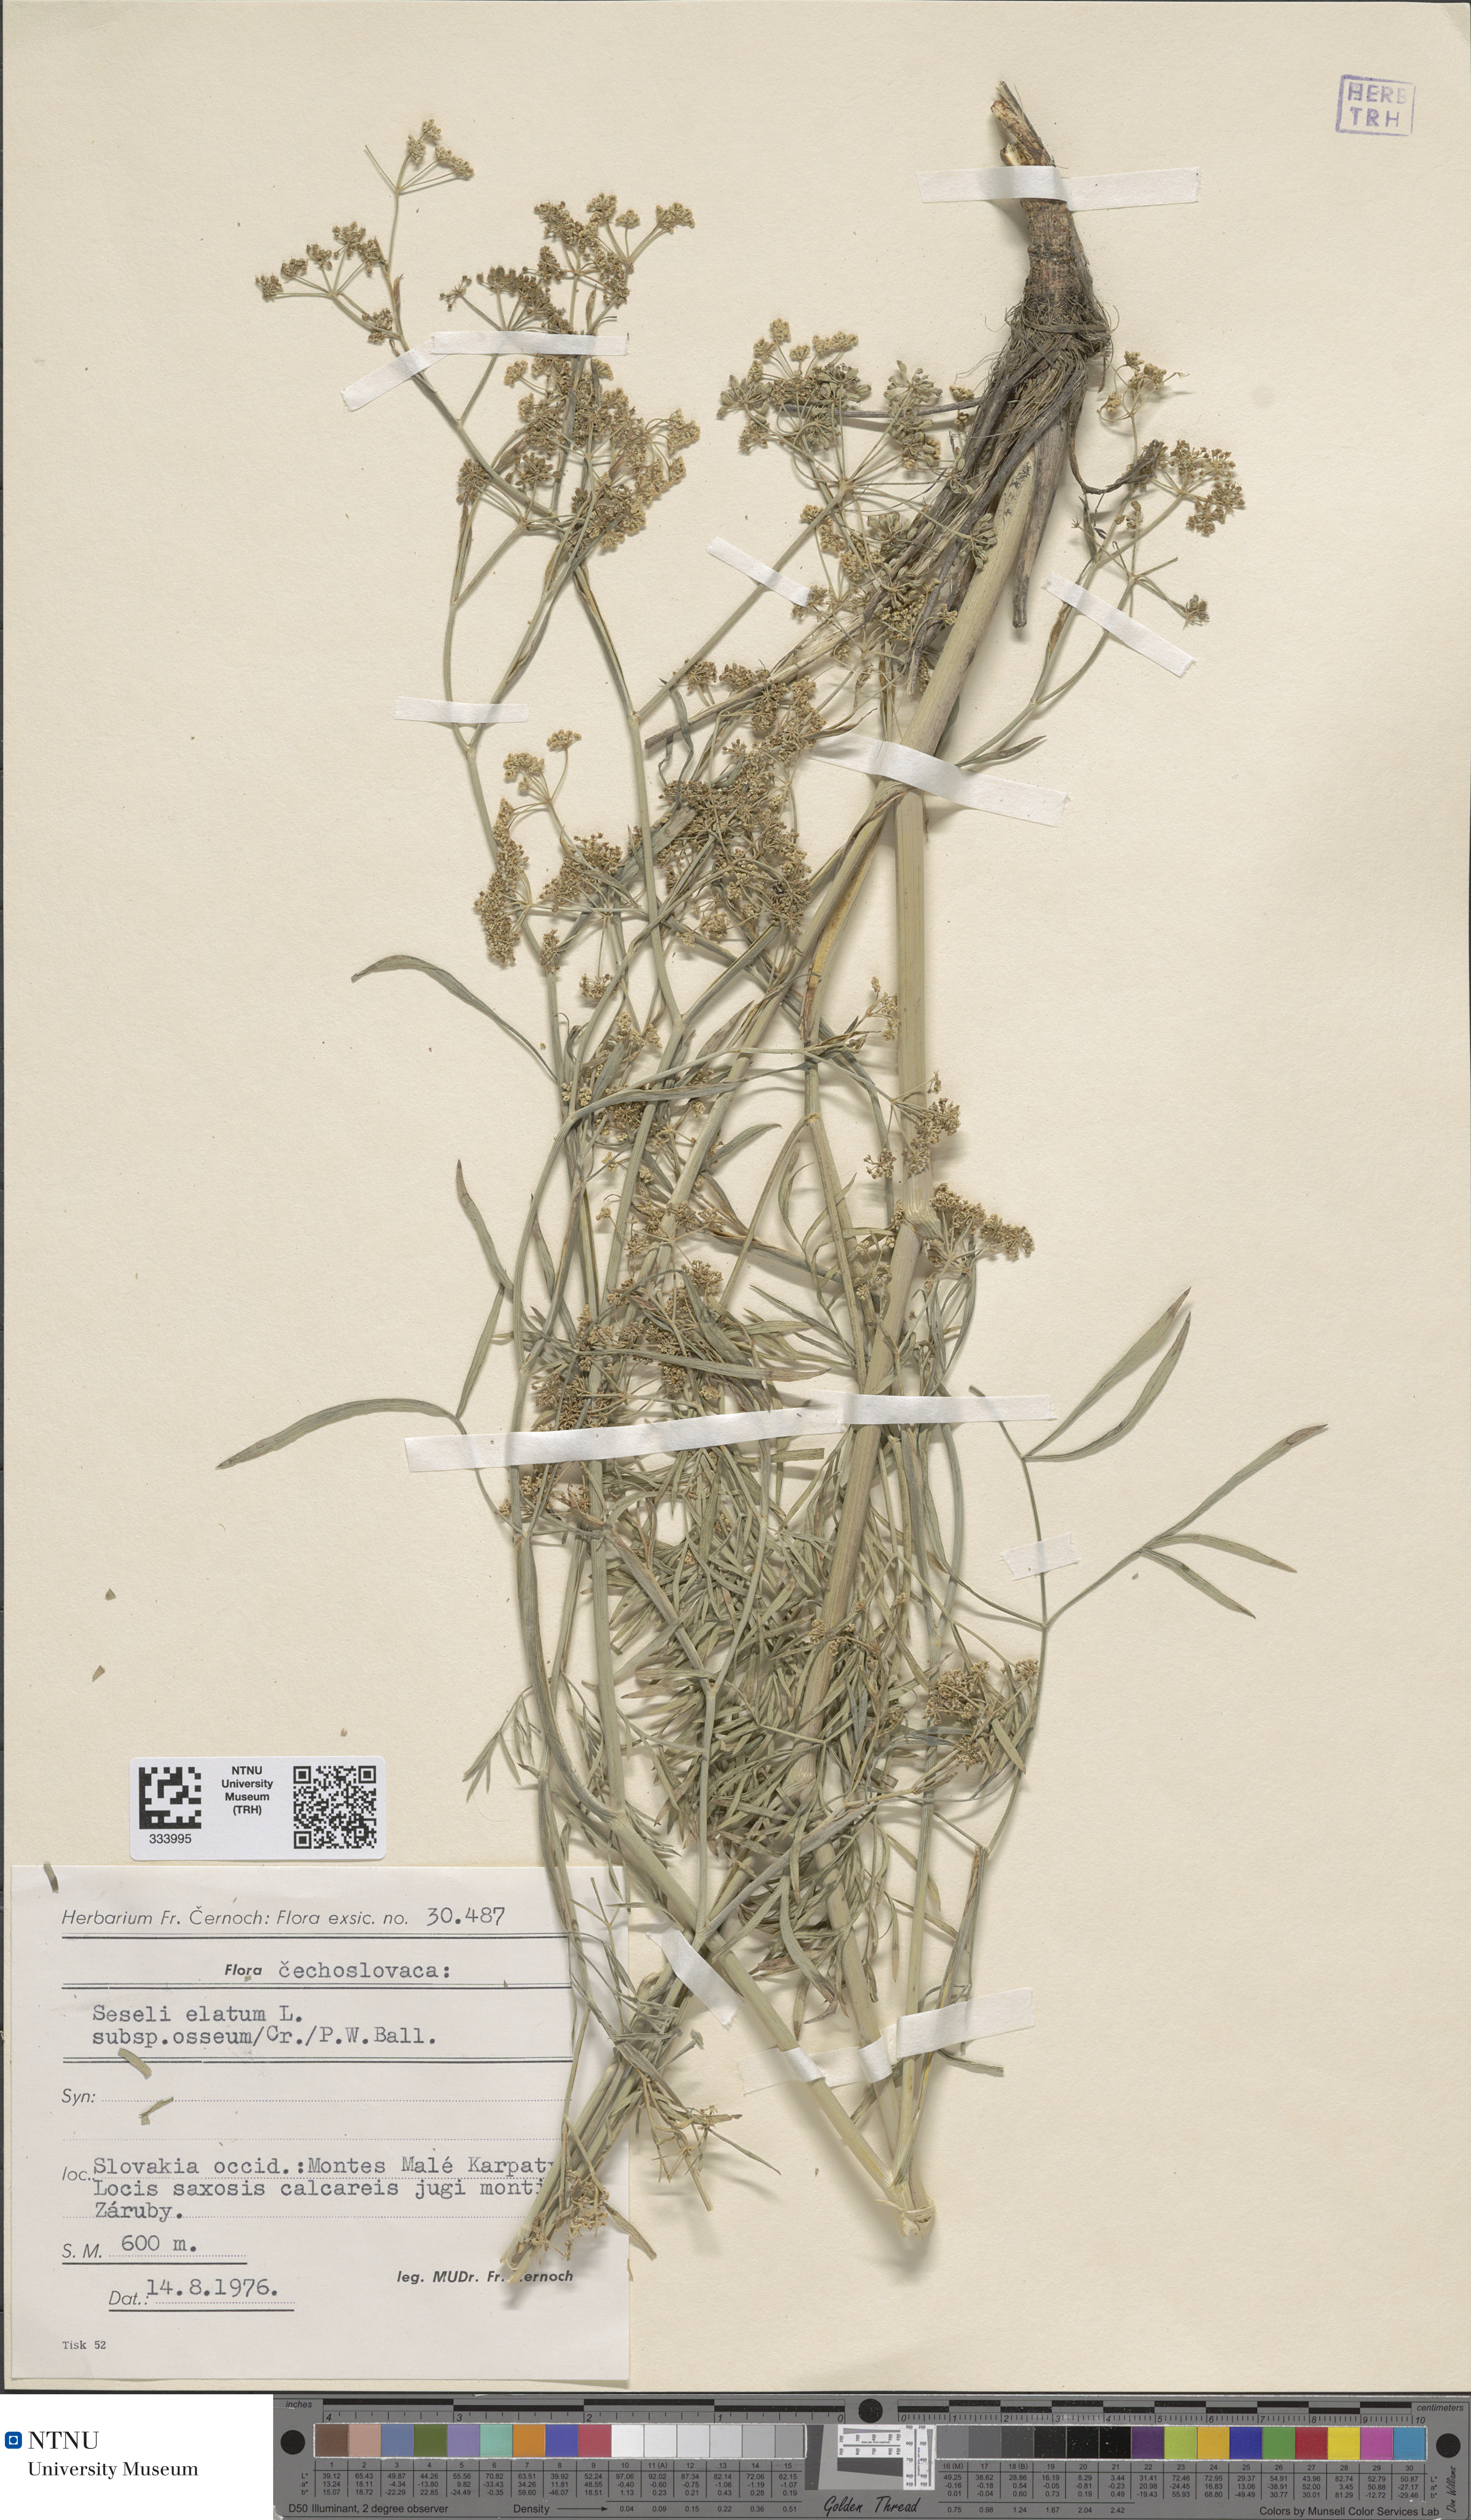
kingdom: Plantae
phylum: Tracheophyta
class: Magnoliopsida
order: Apiales
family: Apiaceae
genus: Seseli
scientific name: Seseli longifolium
